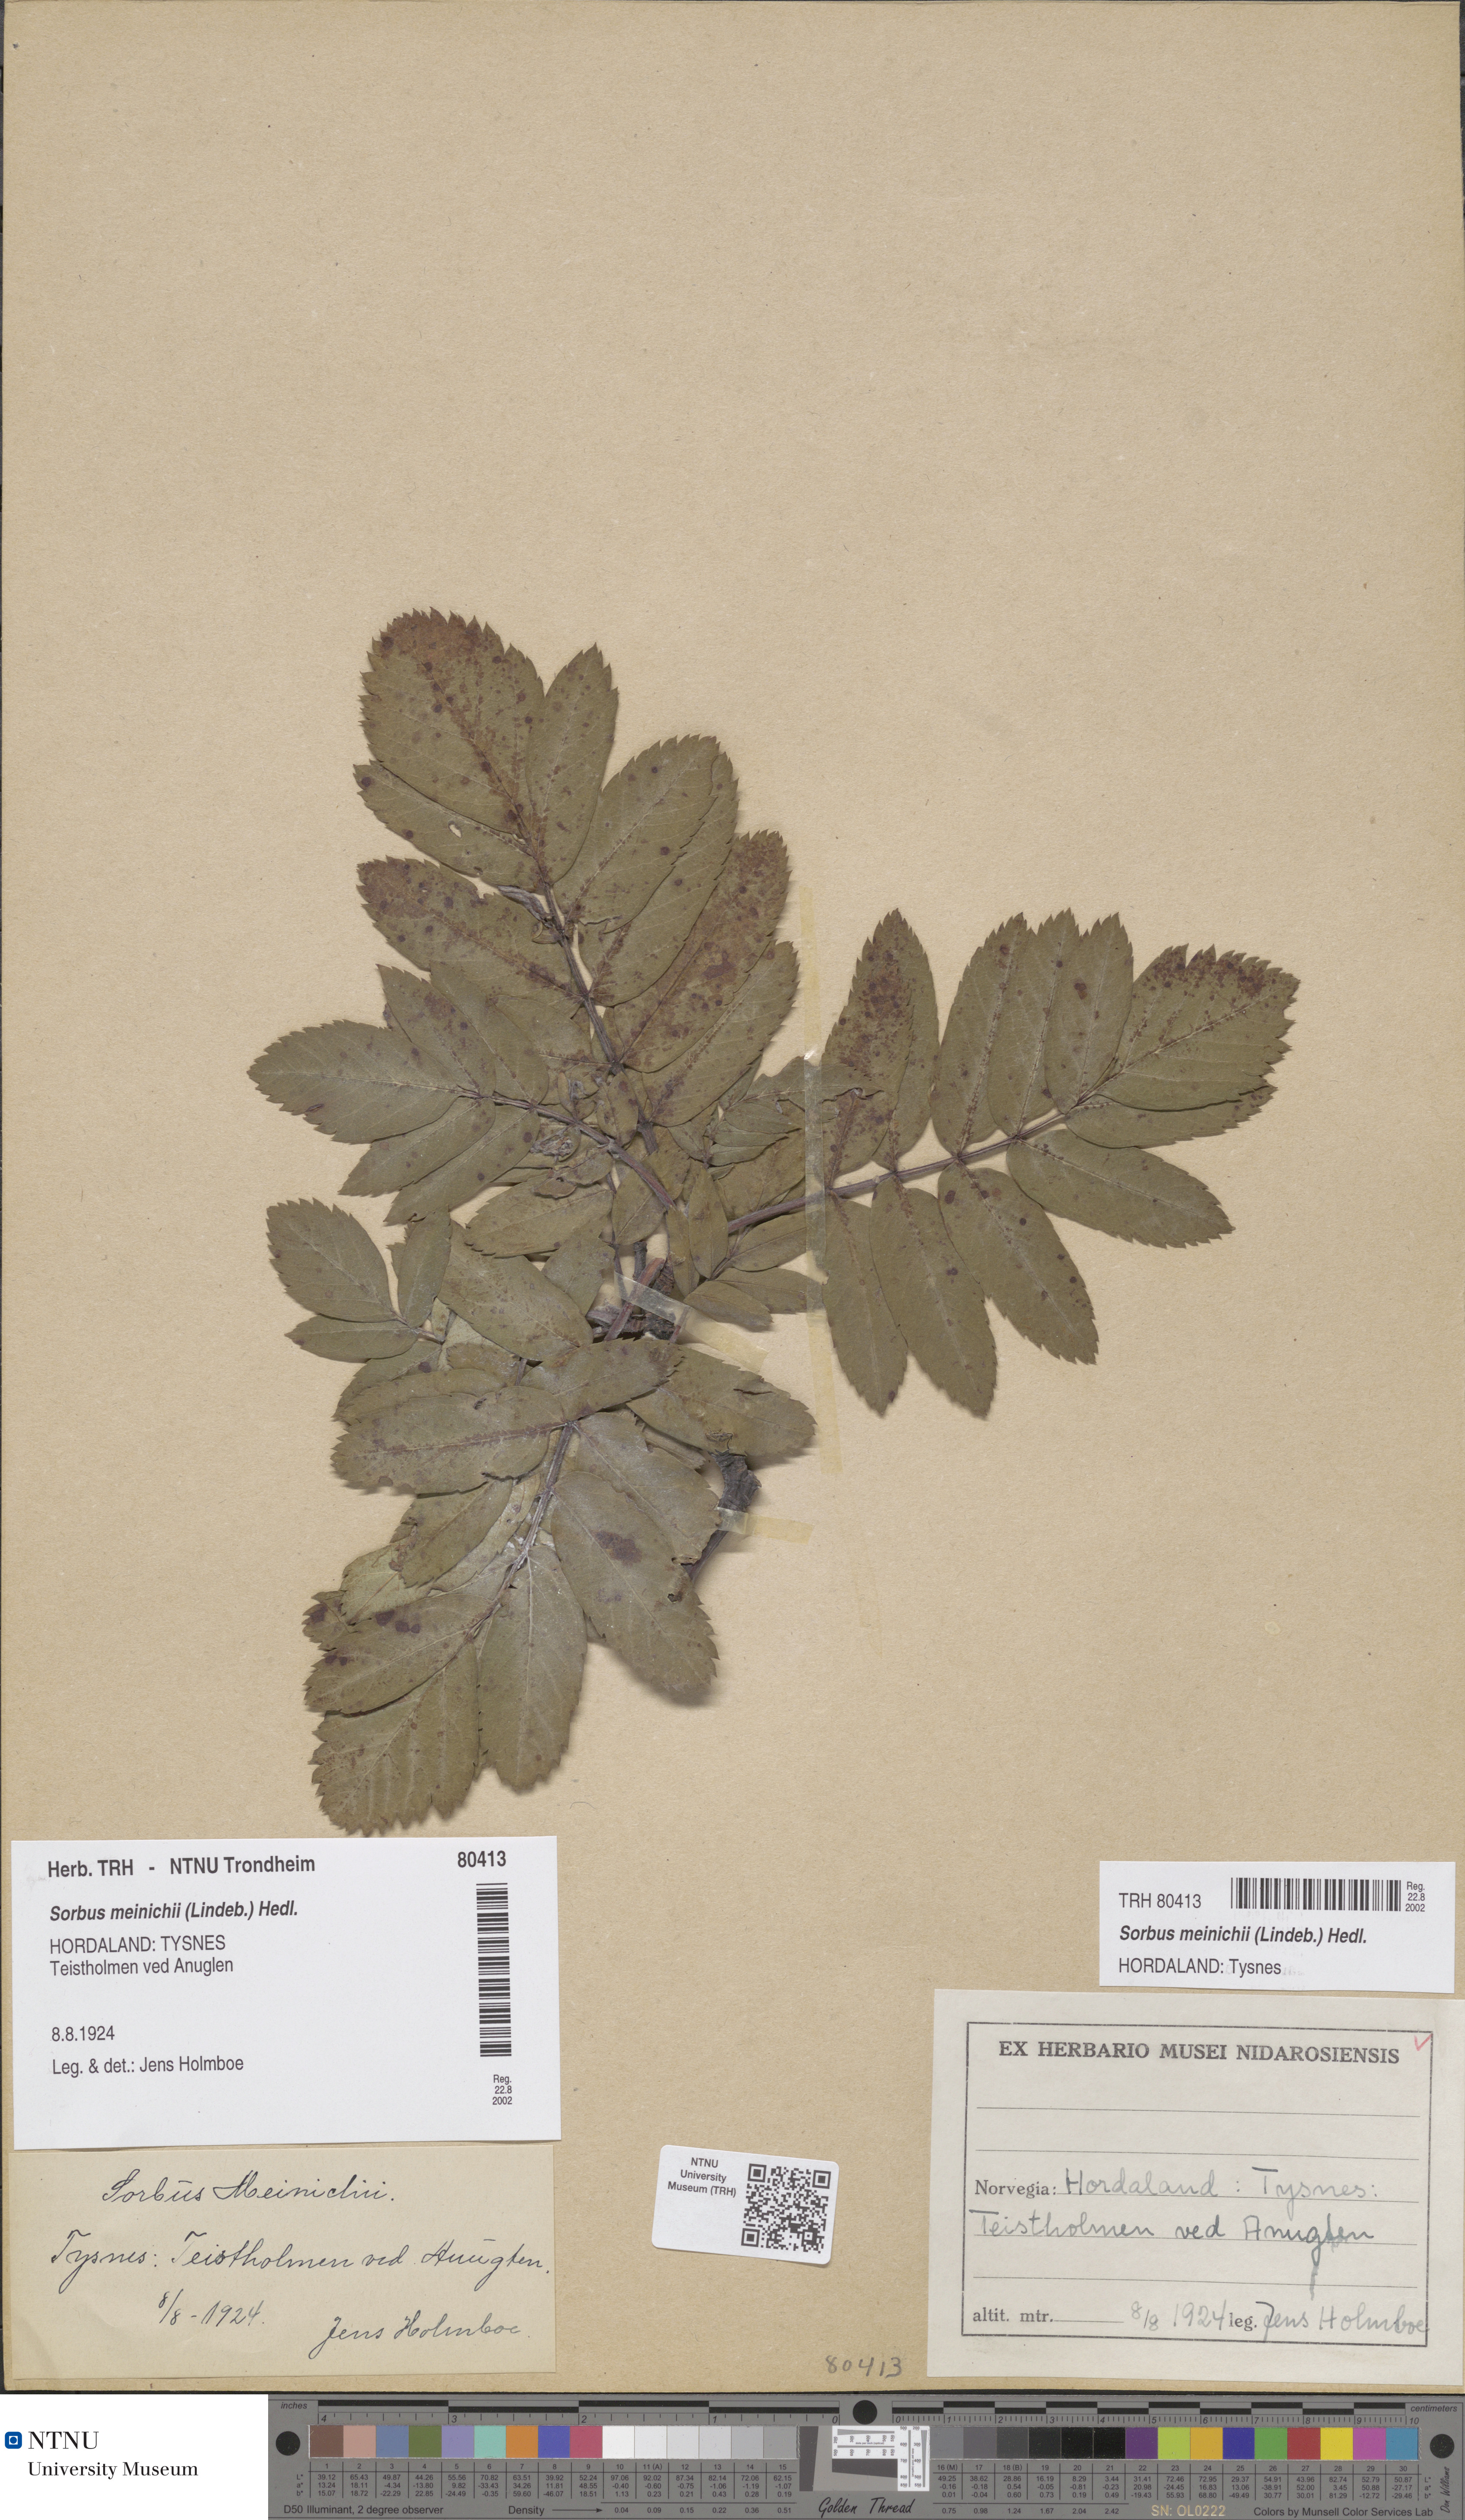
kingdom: Plantae
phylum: Tracheophyta
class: Magnoliopsida
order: Rosales
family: Rosaceae
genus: Hedlundia
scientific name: Hedlundia meinichii
